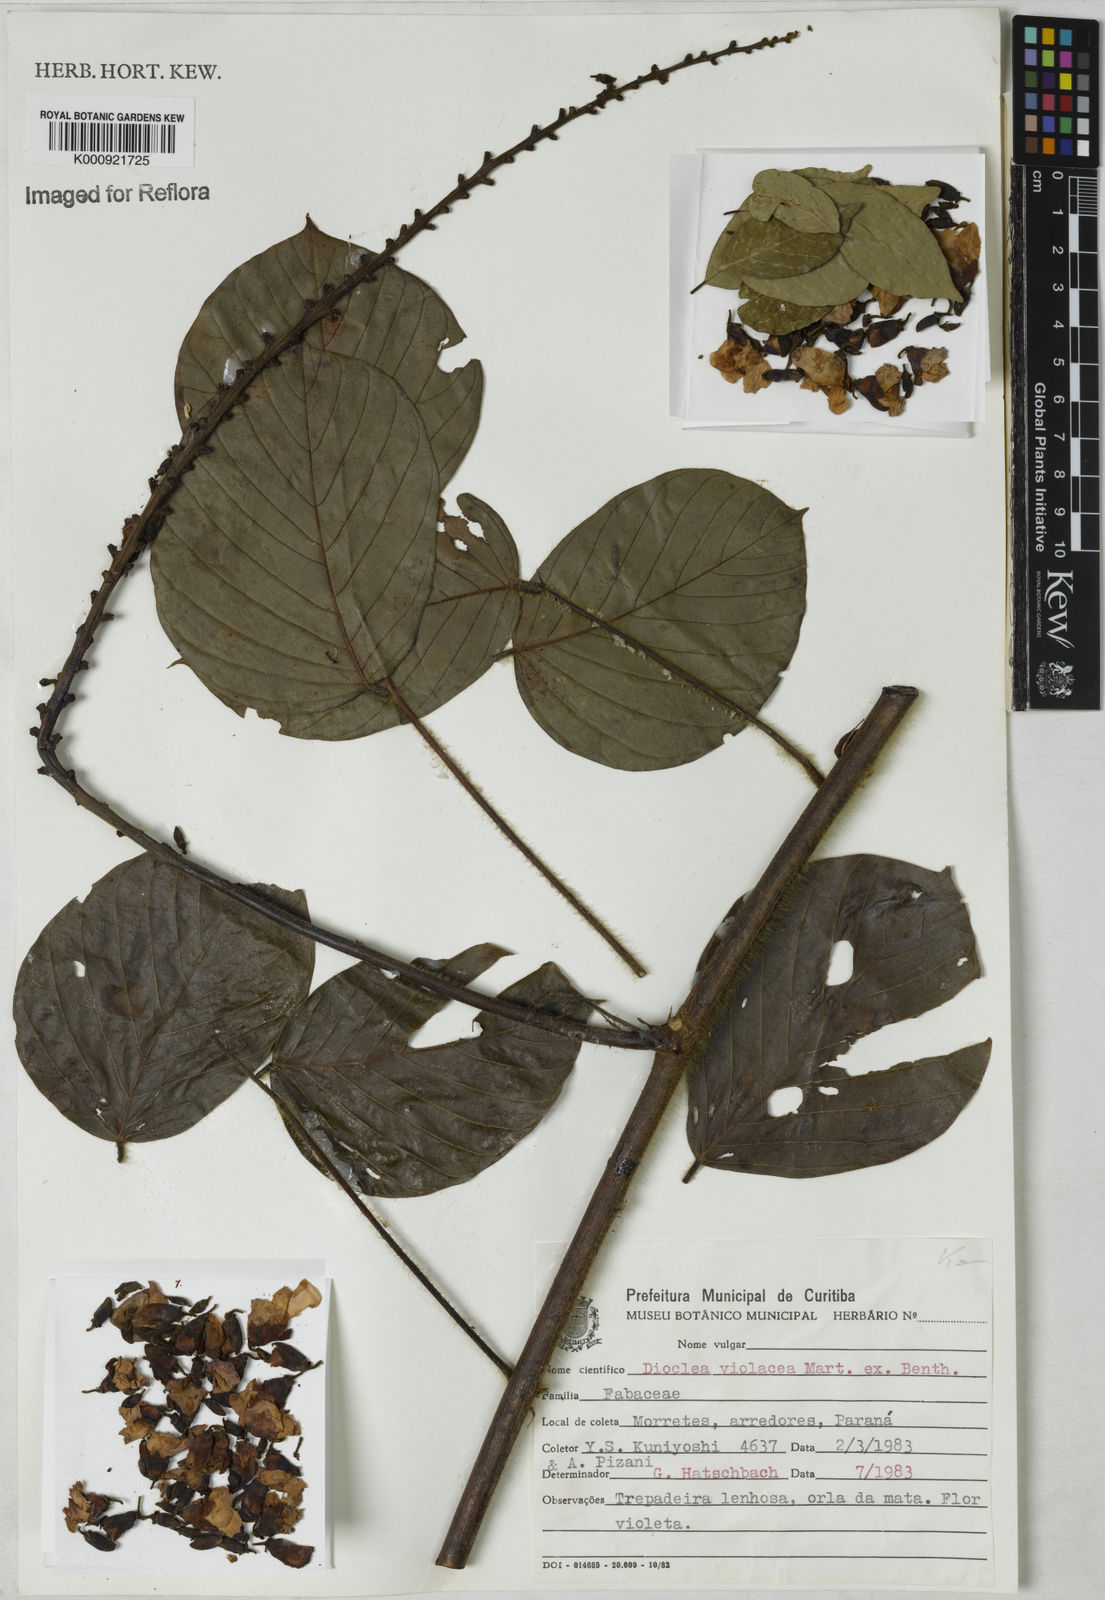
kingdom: Plantae
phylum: Tracheophyta
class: Magnoliopsida
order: Fabales
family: Fabaceae
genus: Macropsychanthus
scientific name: Macropsychanthus violaceus
